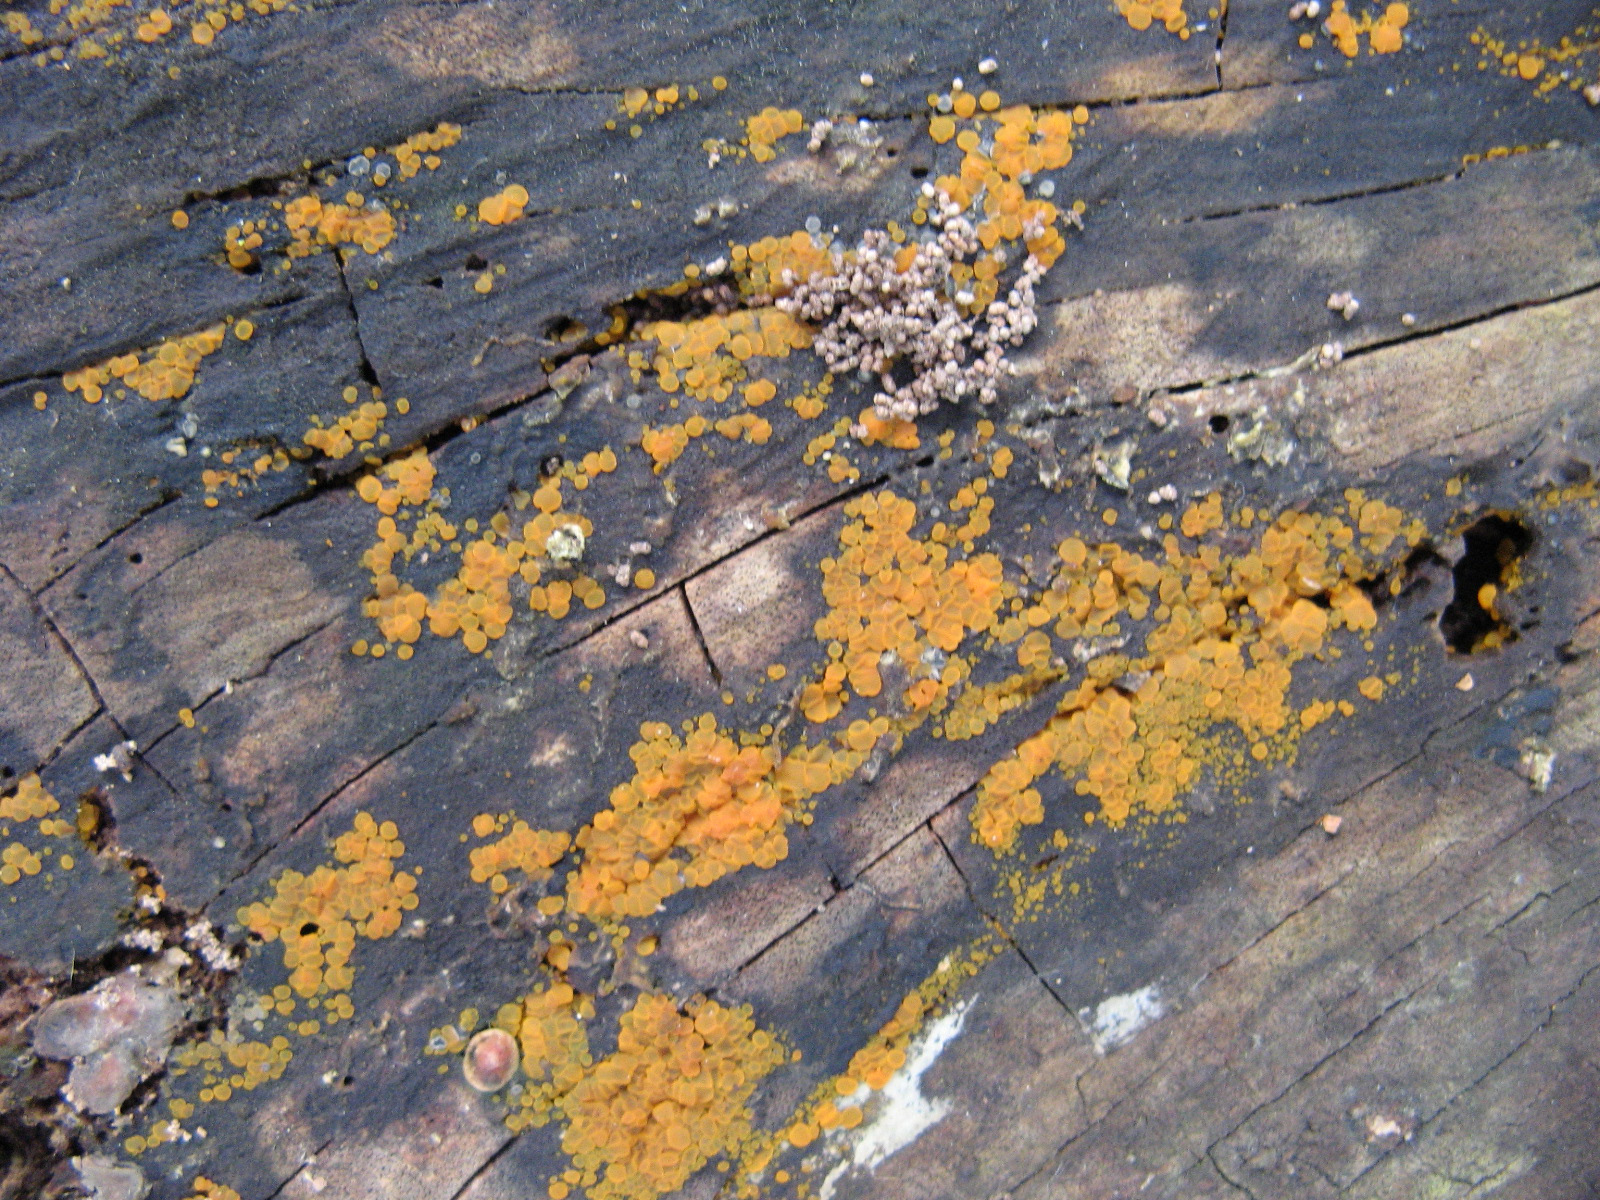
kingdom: Fungi
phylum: Ascomycota
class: Orbiliomycetes
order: Orbiliales
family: Orbiliaceae
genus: Orbilia
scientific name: Orbilia xanthostigma
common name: krumsporet voksskive
